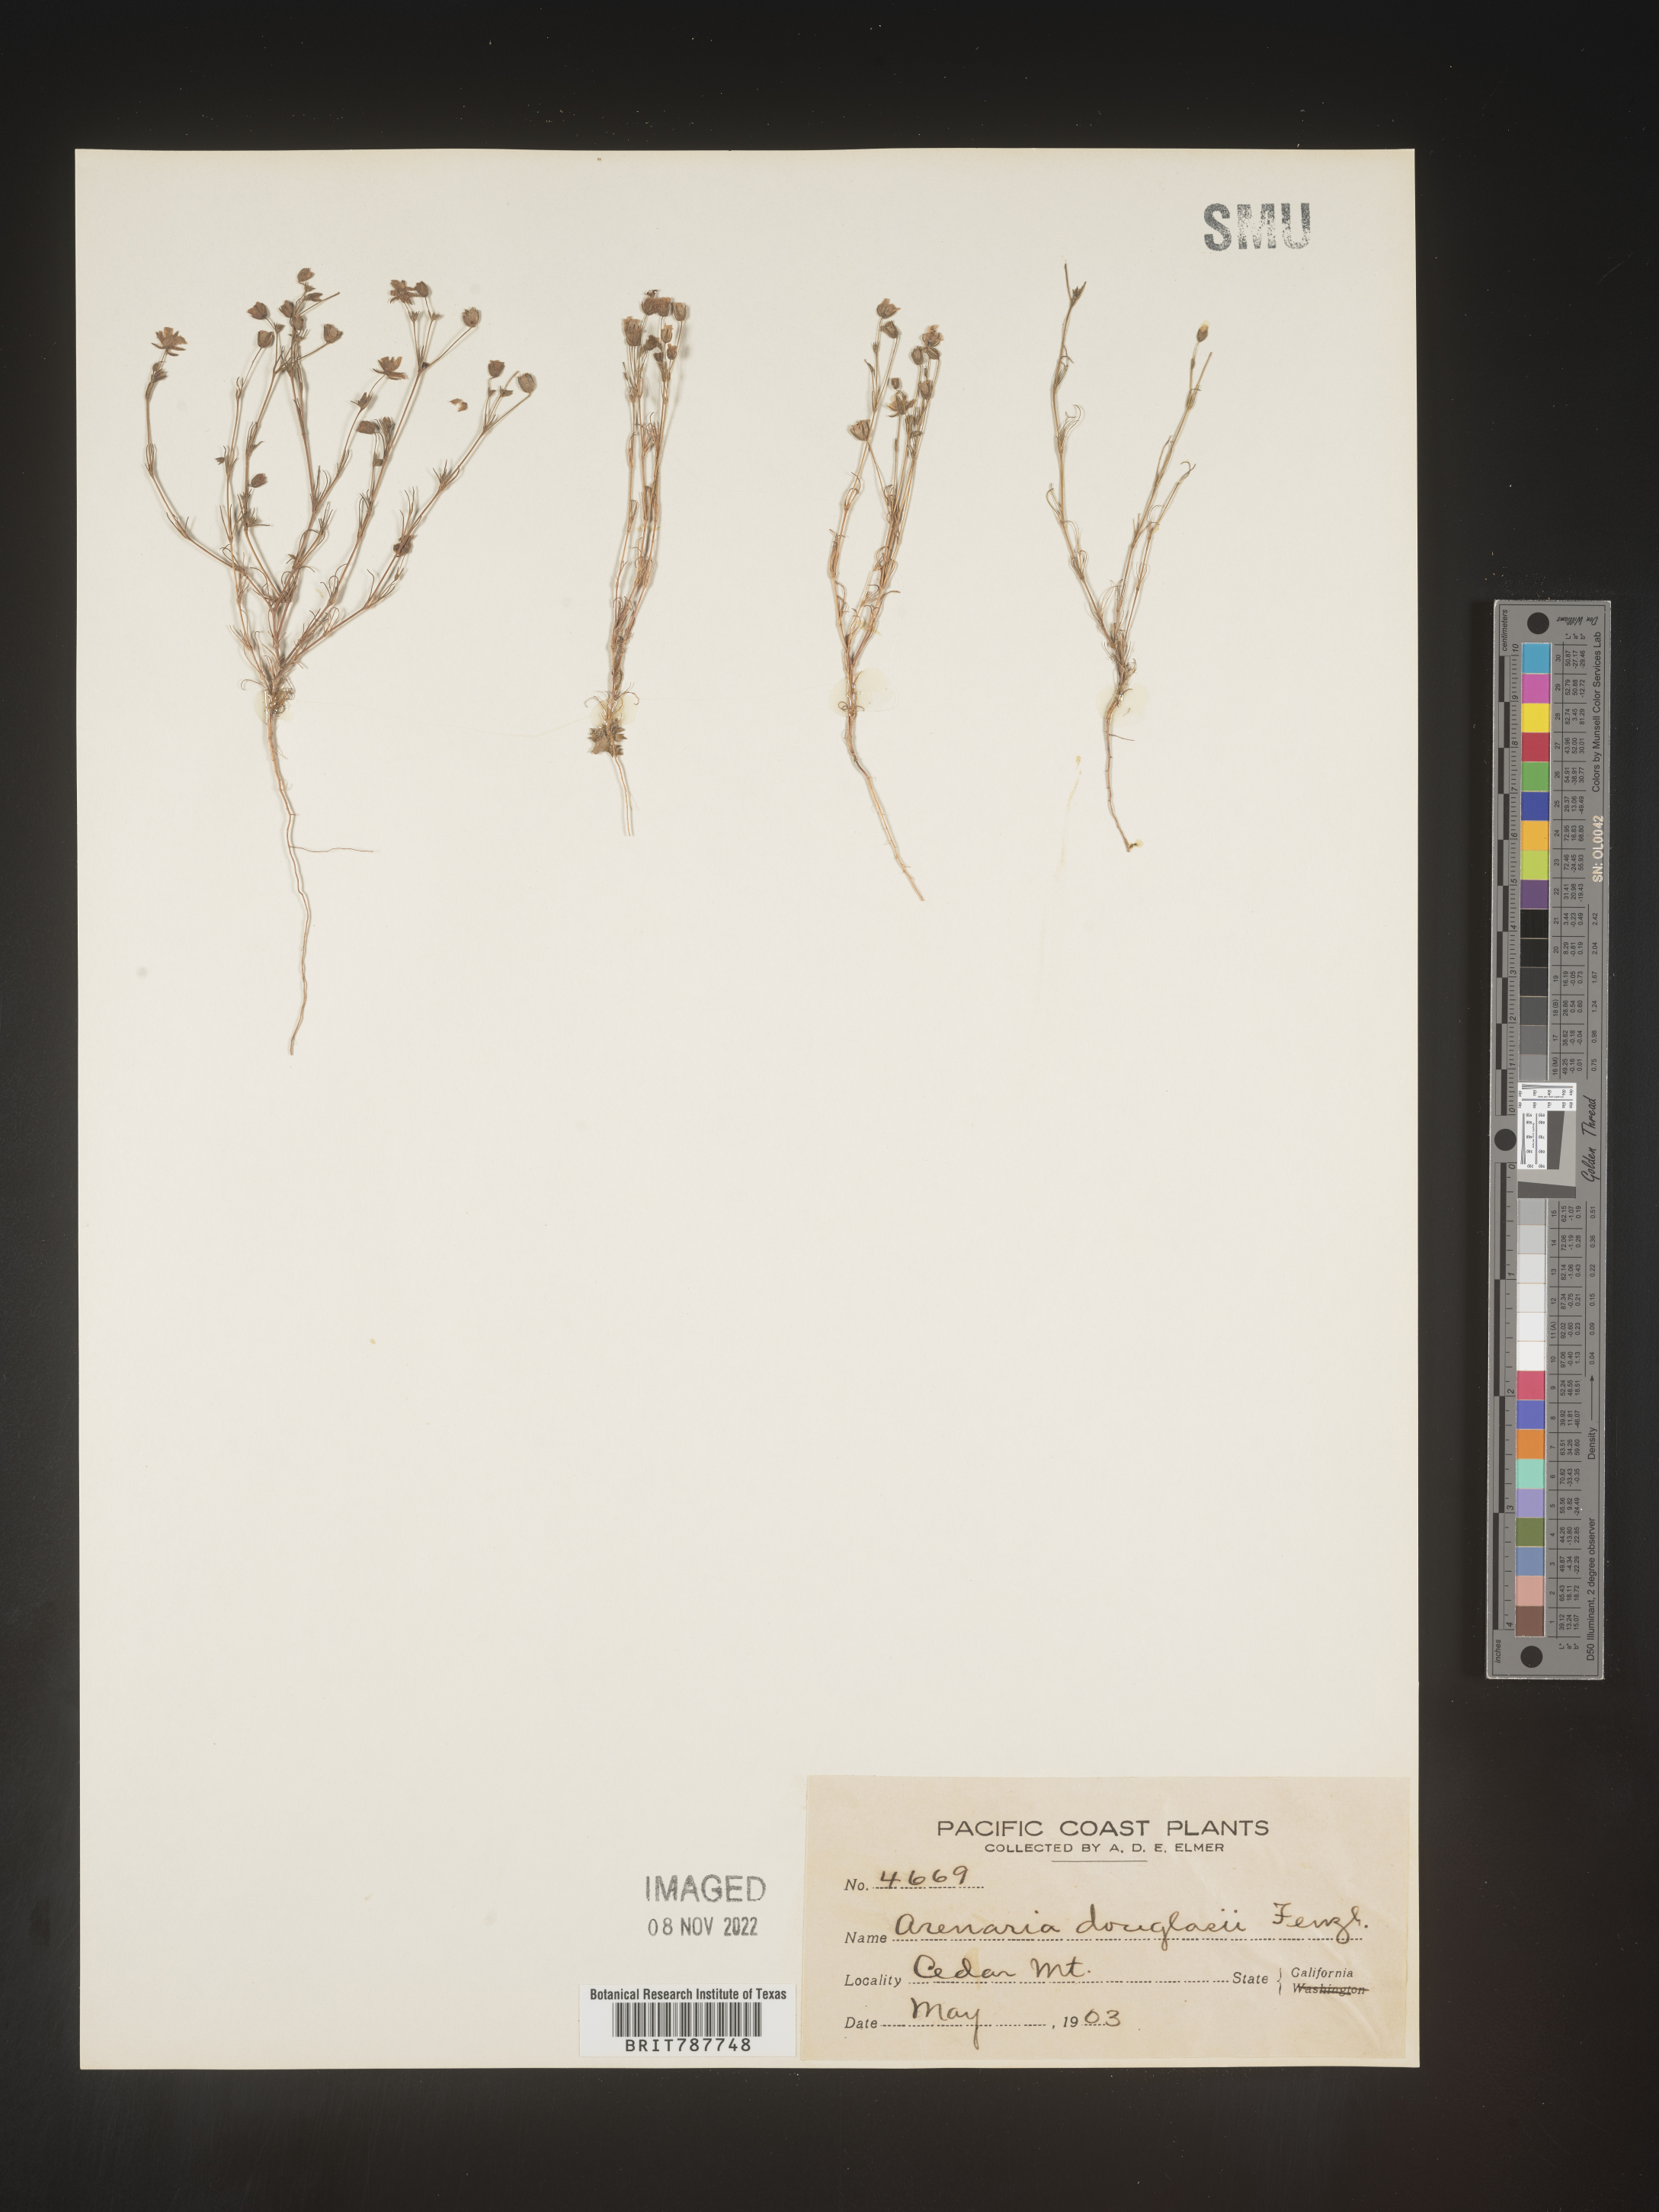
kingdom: Plantae
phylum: Tracheophyta
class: Magnoliopsida
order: Caryophyllales
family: Caryophyllaceae
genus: Arenaria
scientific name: Arenaria
